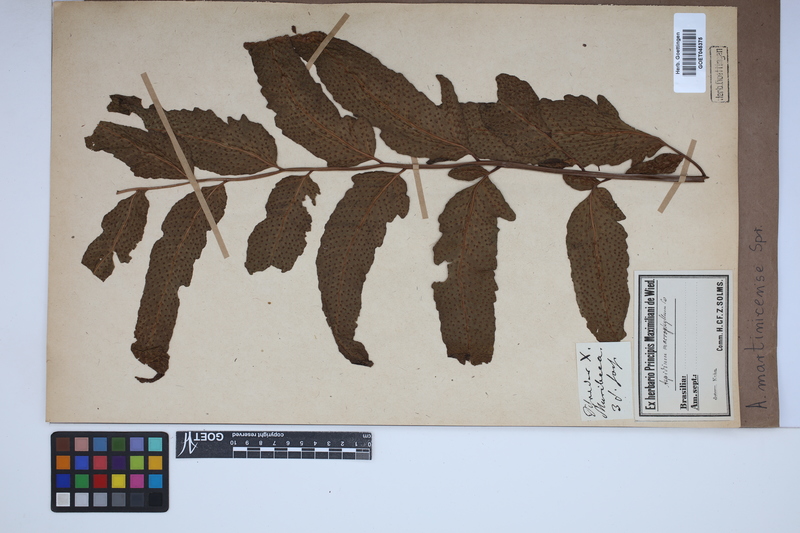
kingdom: Plantae
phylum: Tracheophyta
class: Polypodiopsida
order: Polypodiales
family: Tectariaceae
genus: Tectaria
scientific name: Tectaria incisa
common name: Incised halberd fern
